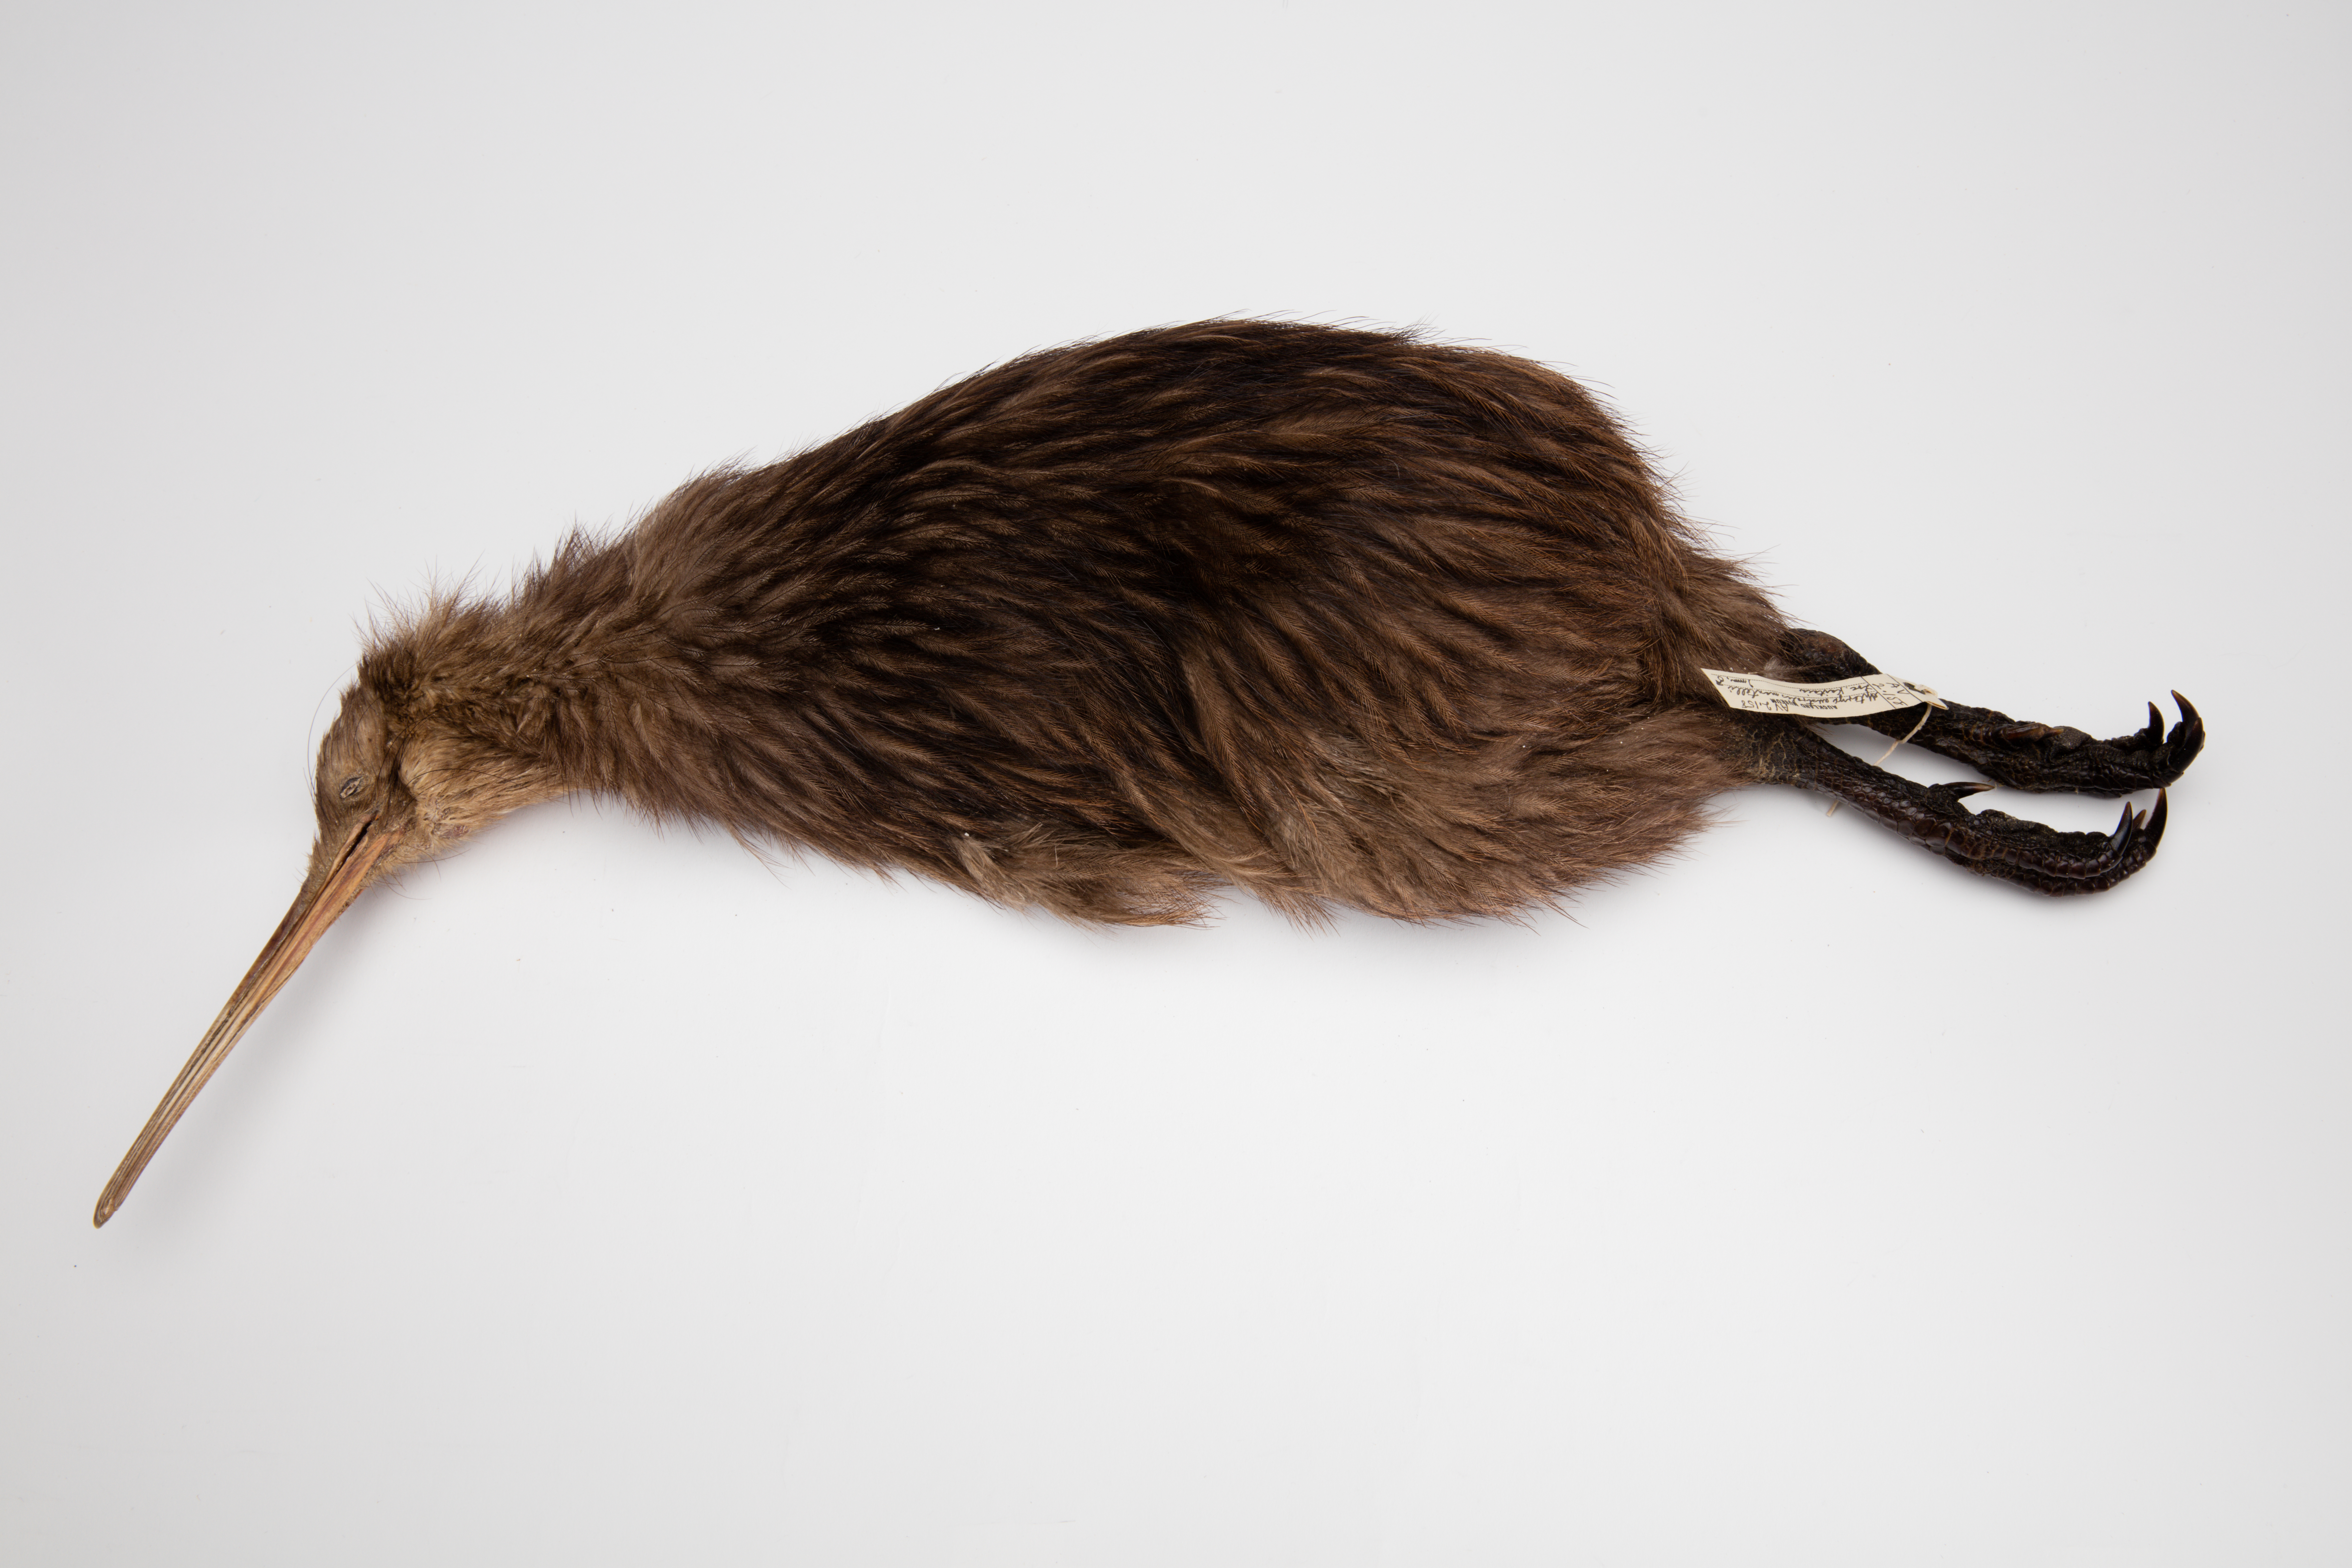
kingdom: Animalia
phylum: Chordata
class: Aves
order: Apterygiformes
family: Apterygidae
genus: Apteryx
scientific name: Apteryx mantelli
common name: North island brown kiwi
